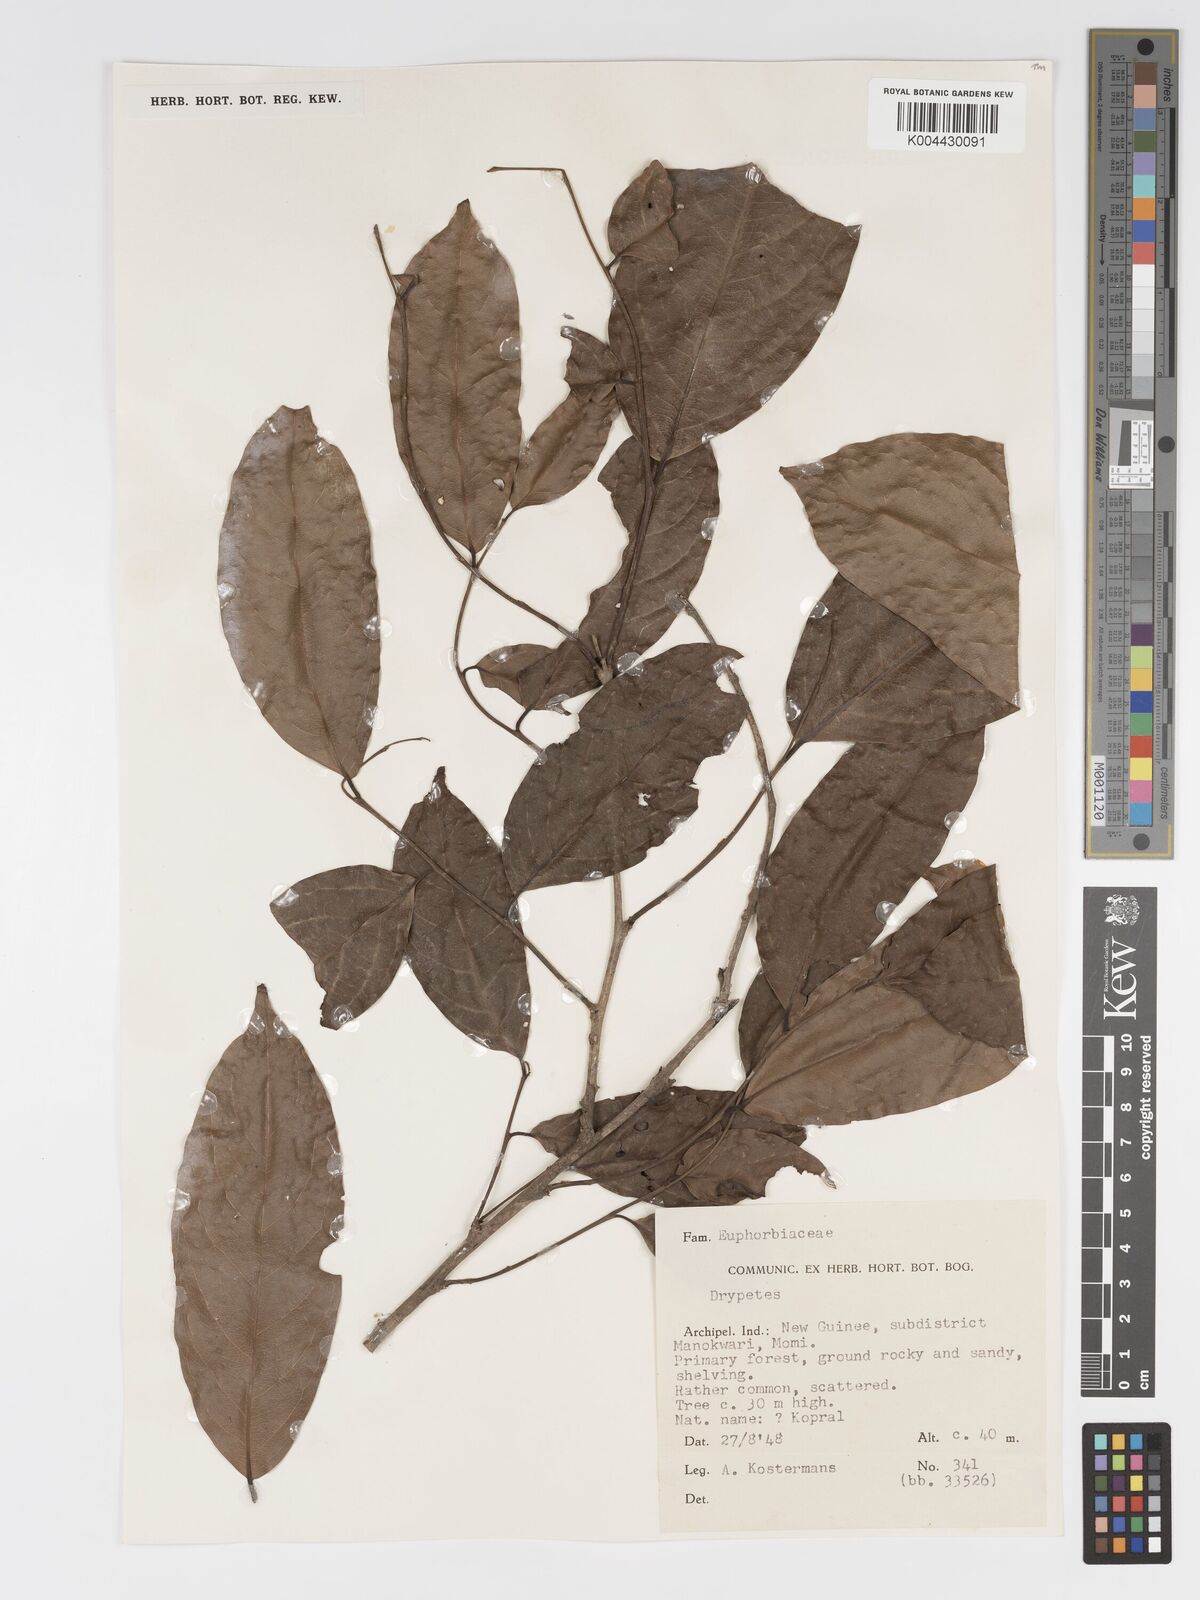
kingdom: Plantae
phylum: Tracheophyta
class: Magnoliopsida
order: Malpighiales
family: Putranjivaceae
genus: Drypetes
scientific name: Drypetes lasiogynoides
